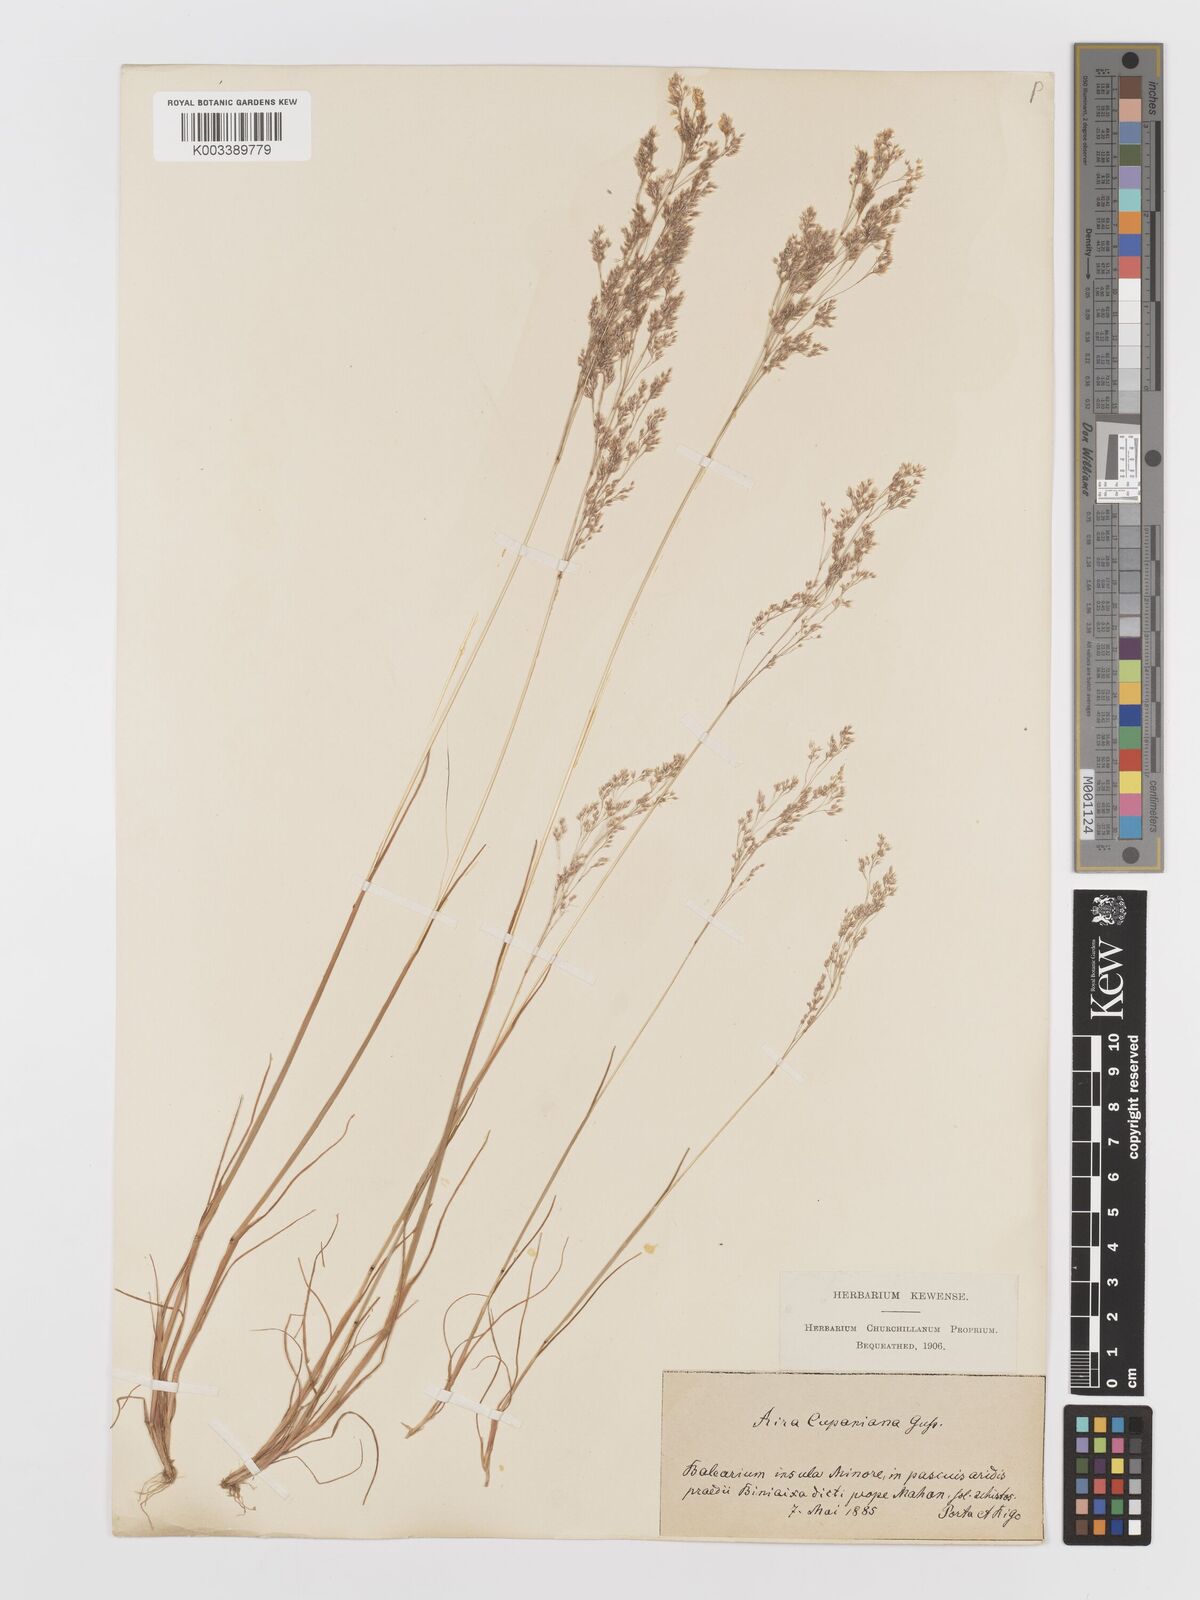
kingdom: Plantae
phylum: Tracheophyta
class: Liliopsida
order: Poales
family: Poaceae
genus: Aira
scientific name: Aira cupaniana
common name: Silver hairgrass
